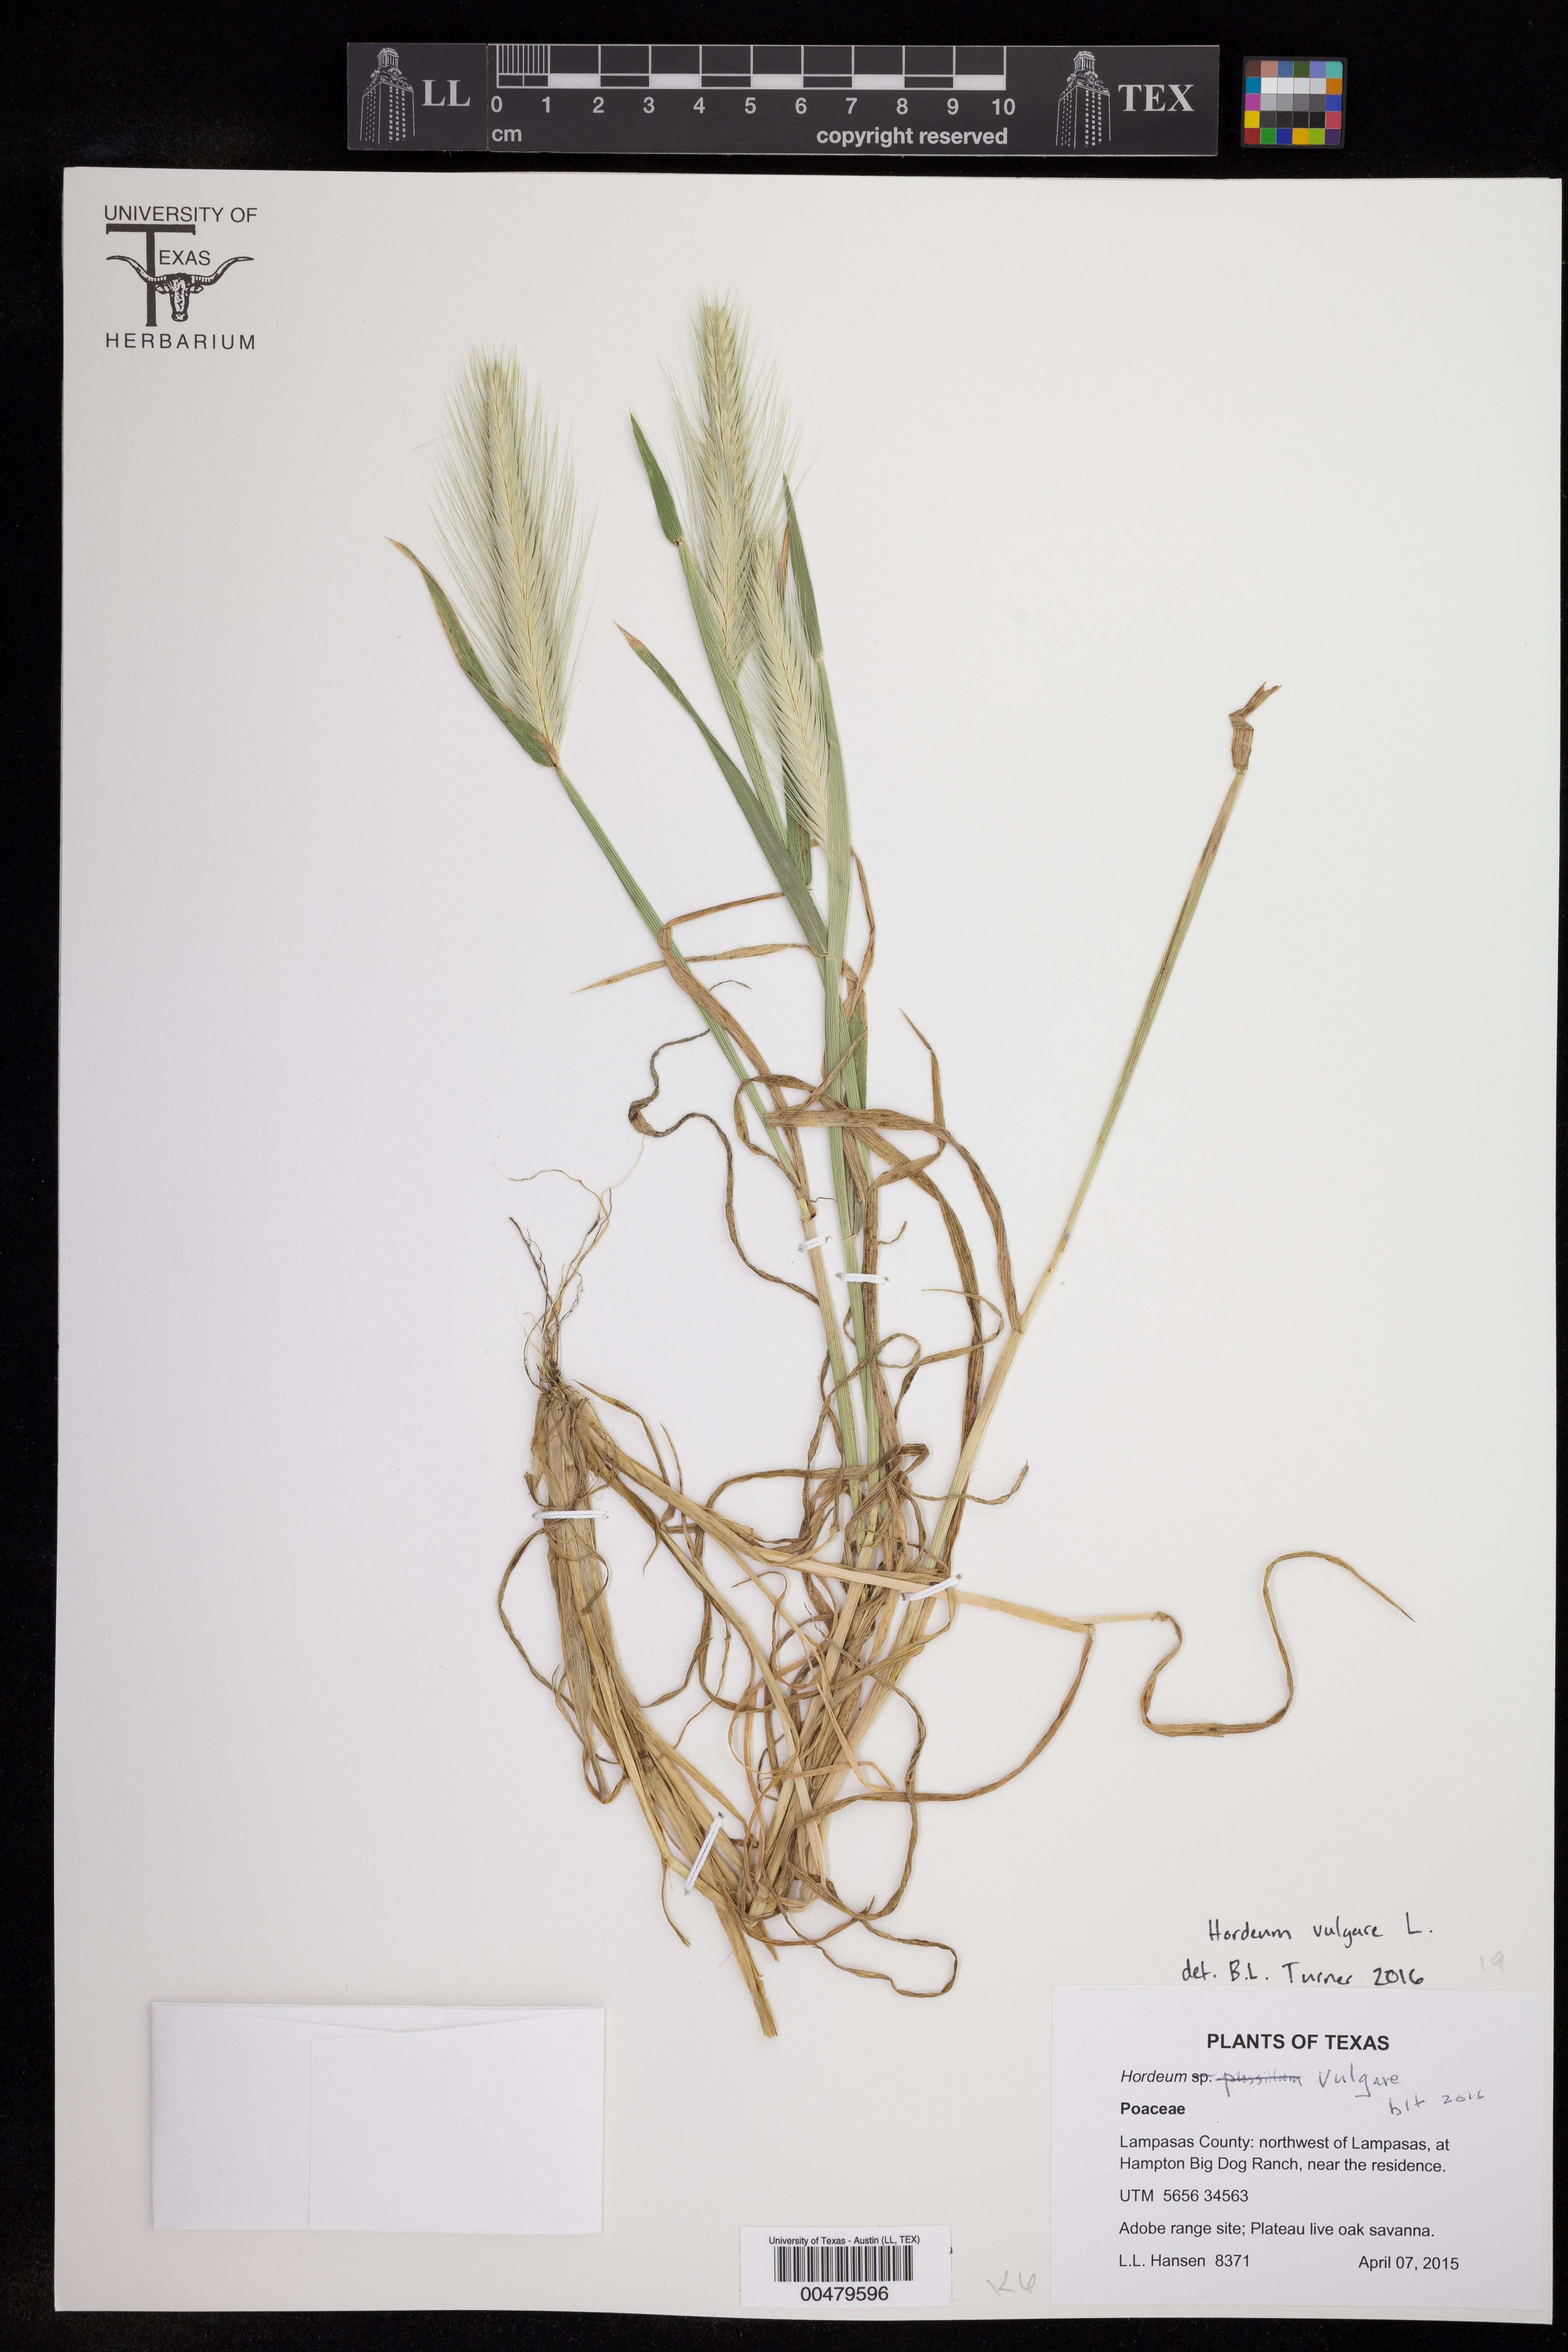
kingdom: Plantae
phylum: Tracheophyta
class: Liliopsida
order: Poales
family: Poaceae
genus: Hordeum
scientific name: Hordeum vulgare
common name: Common barley
